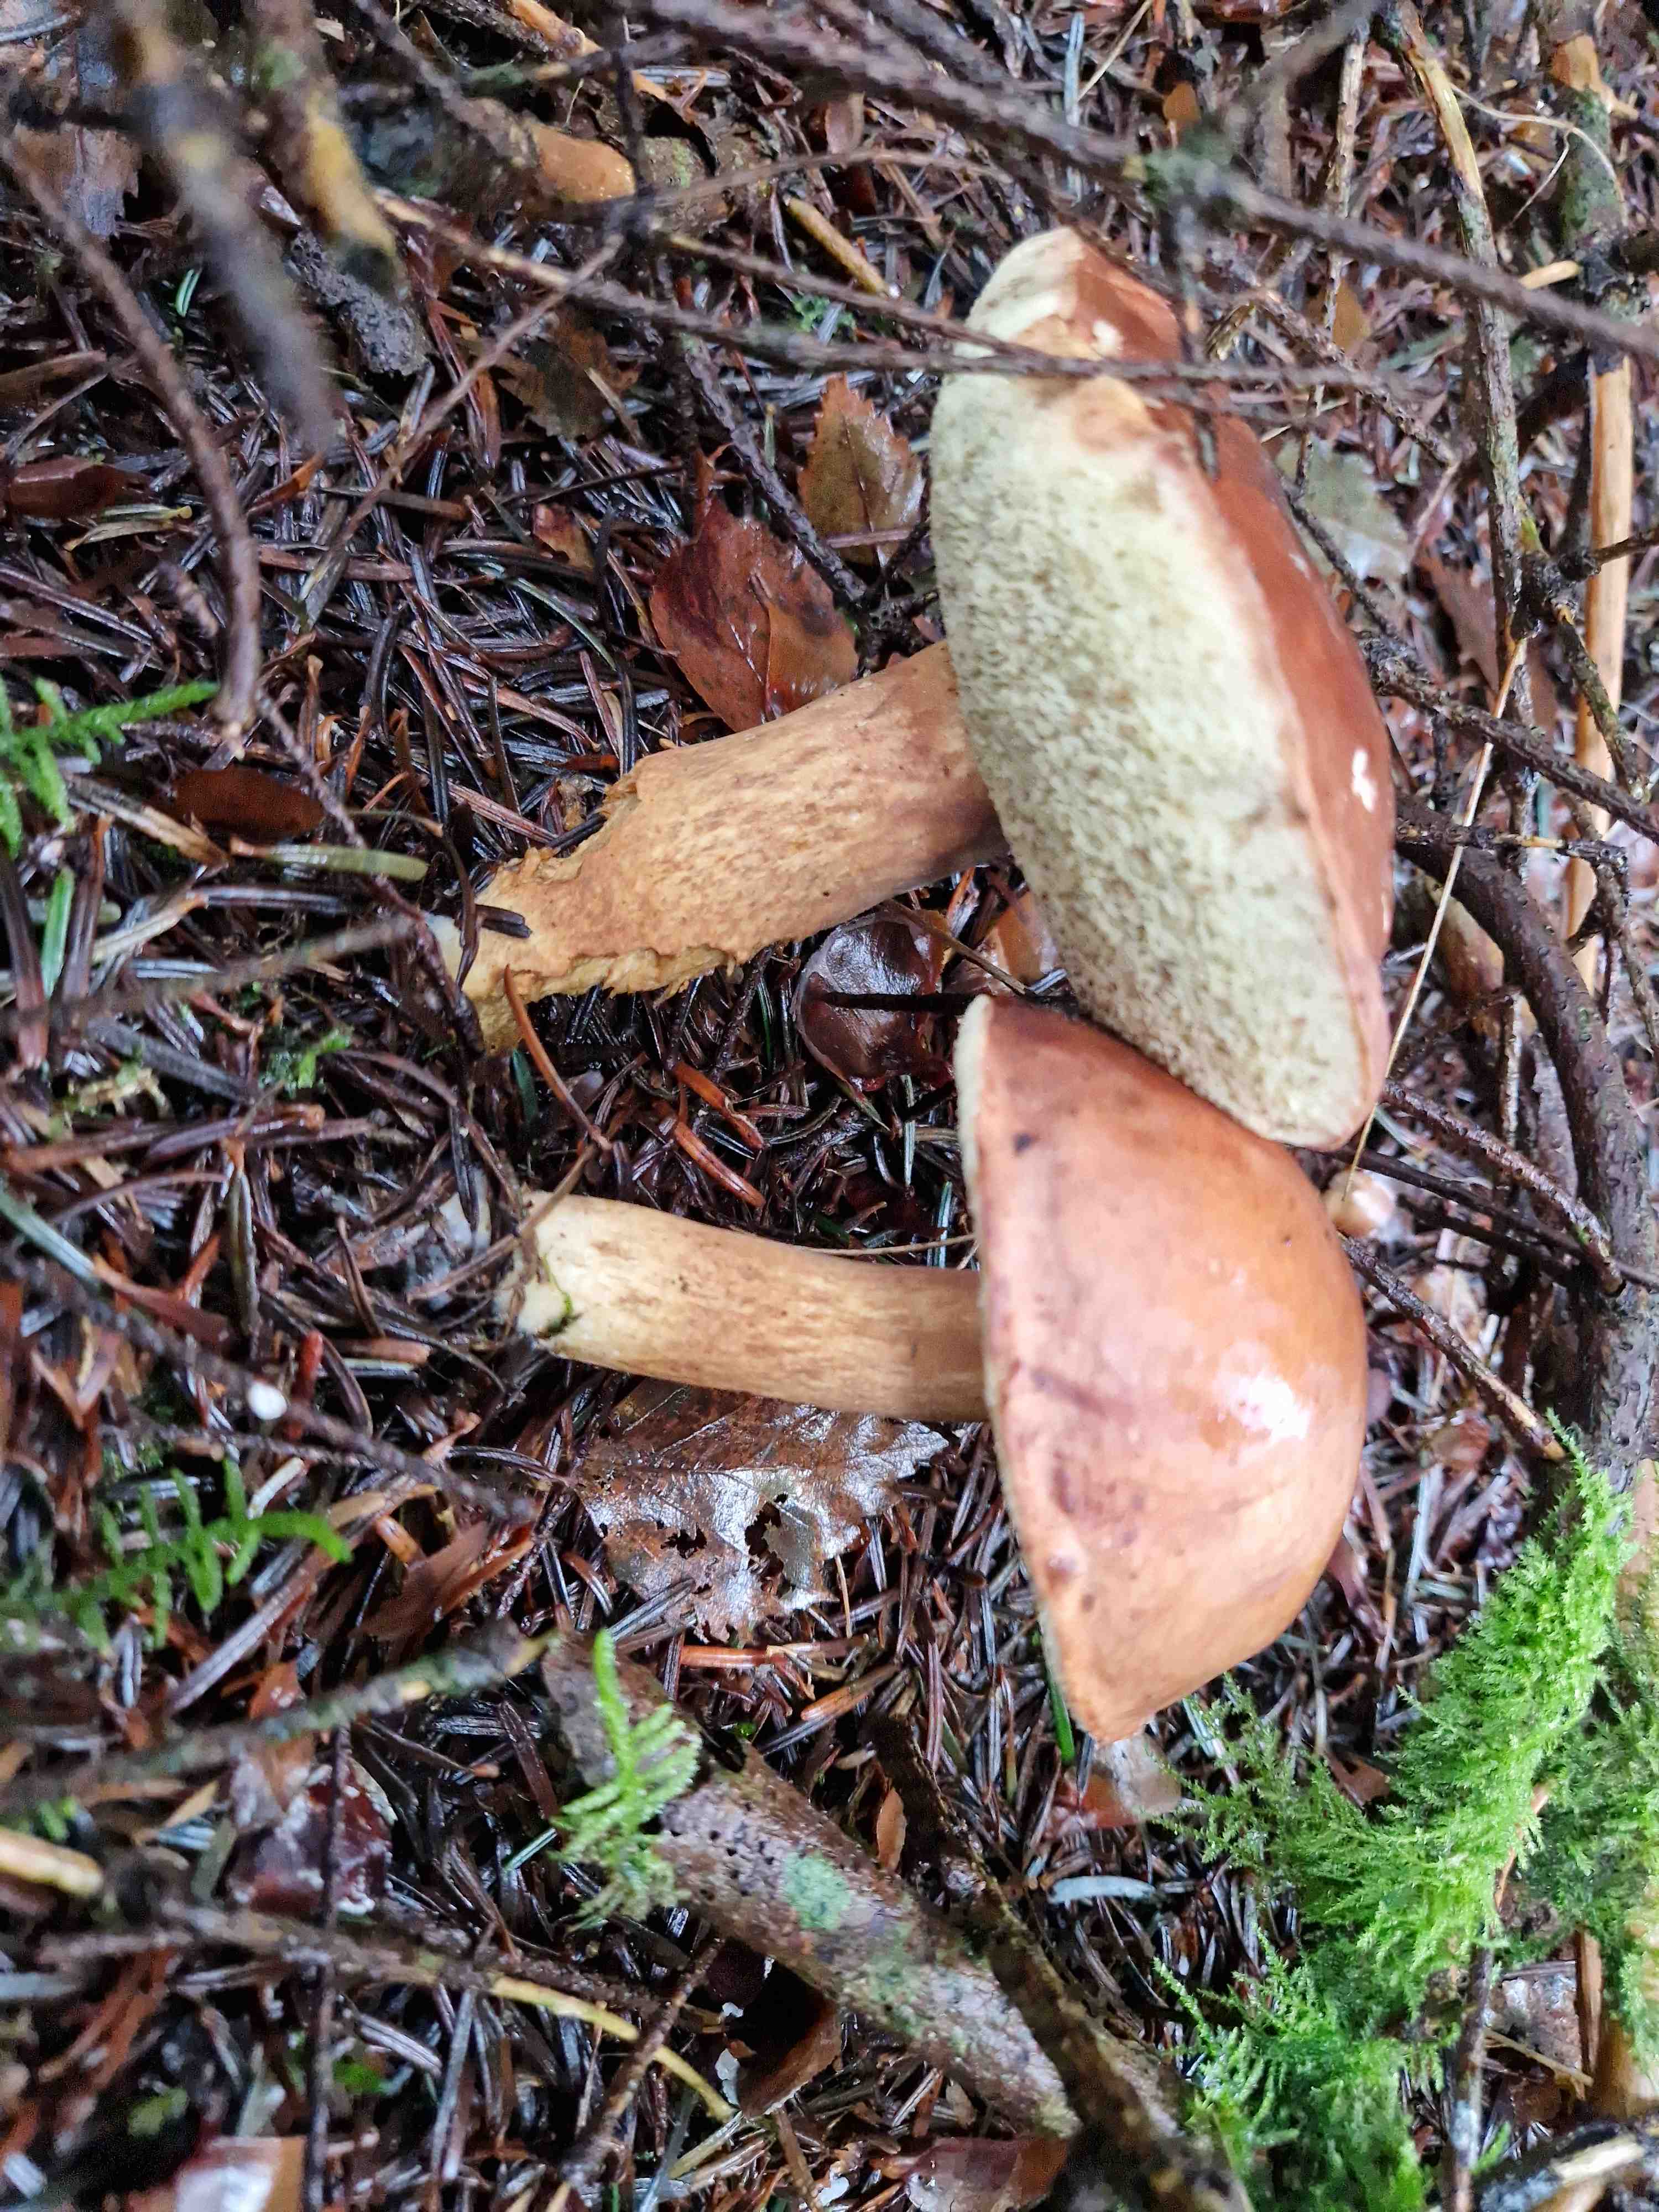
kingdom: Fungi
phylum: Basidiomycota
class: Agaricomycetes
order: Boletales
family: Boletaceae
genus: Imleria
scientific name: Imleria badia
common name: brunstokket rørhat
